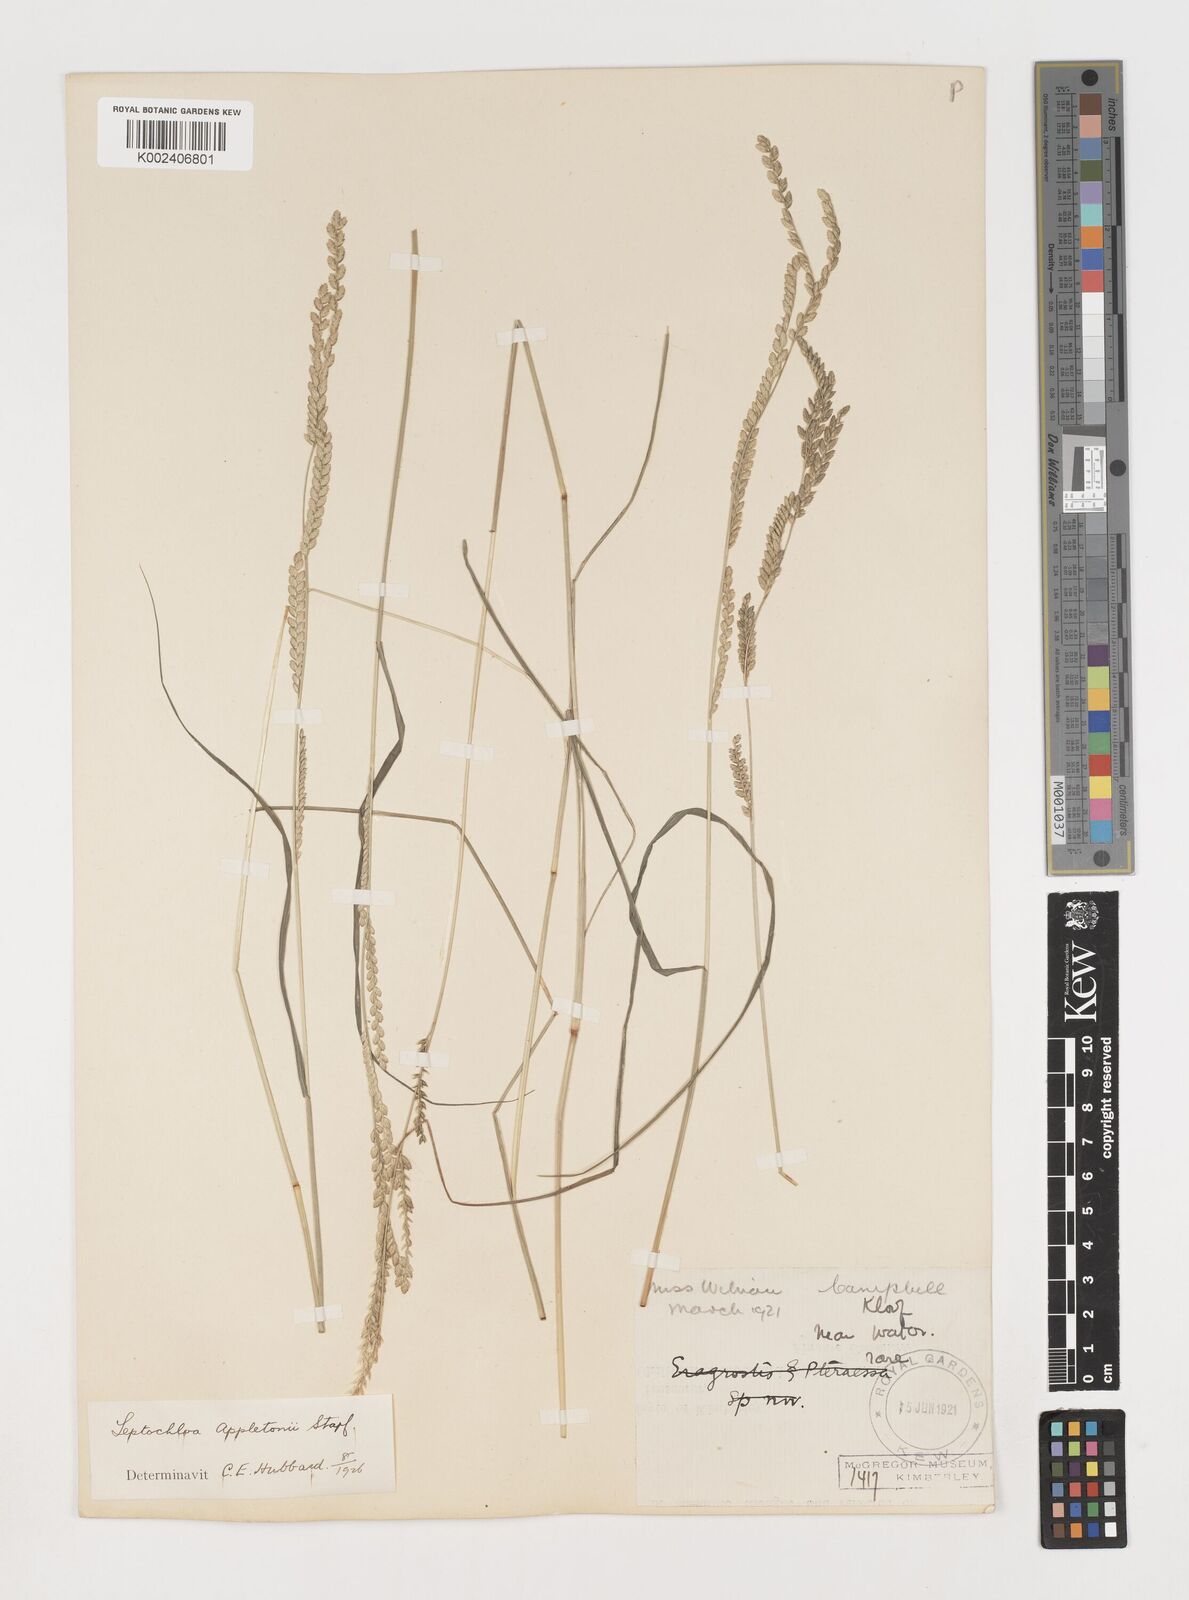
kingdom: Plantae
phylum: Tracheophyta
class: Liliopsida
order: Poales
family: Poaceae
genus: Disakisperma
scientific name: Disakisperma yemenicum
